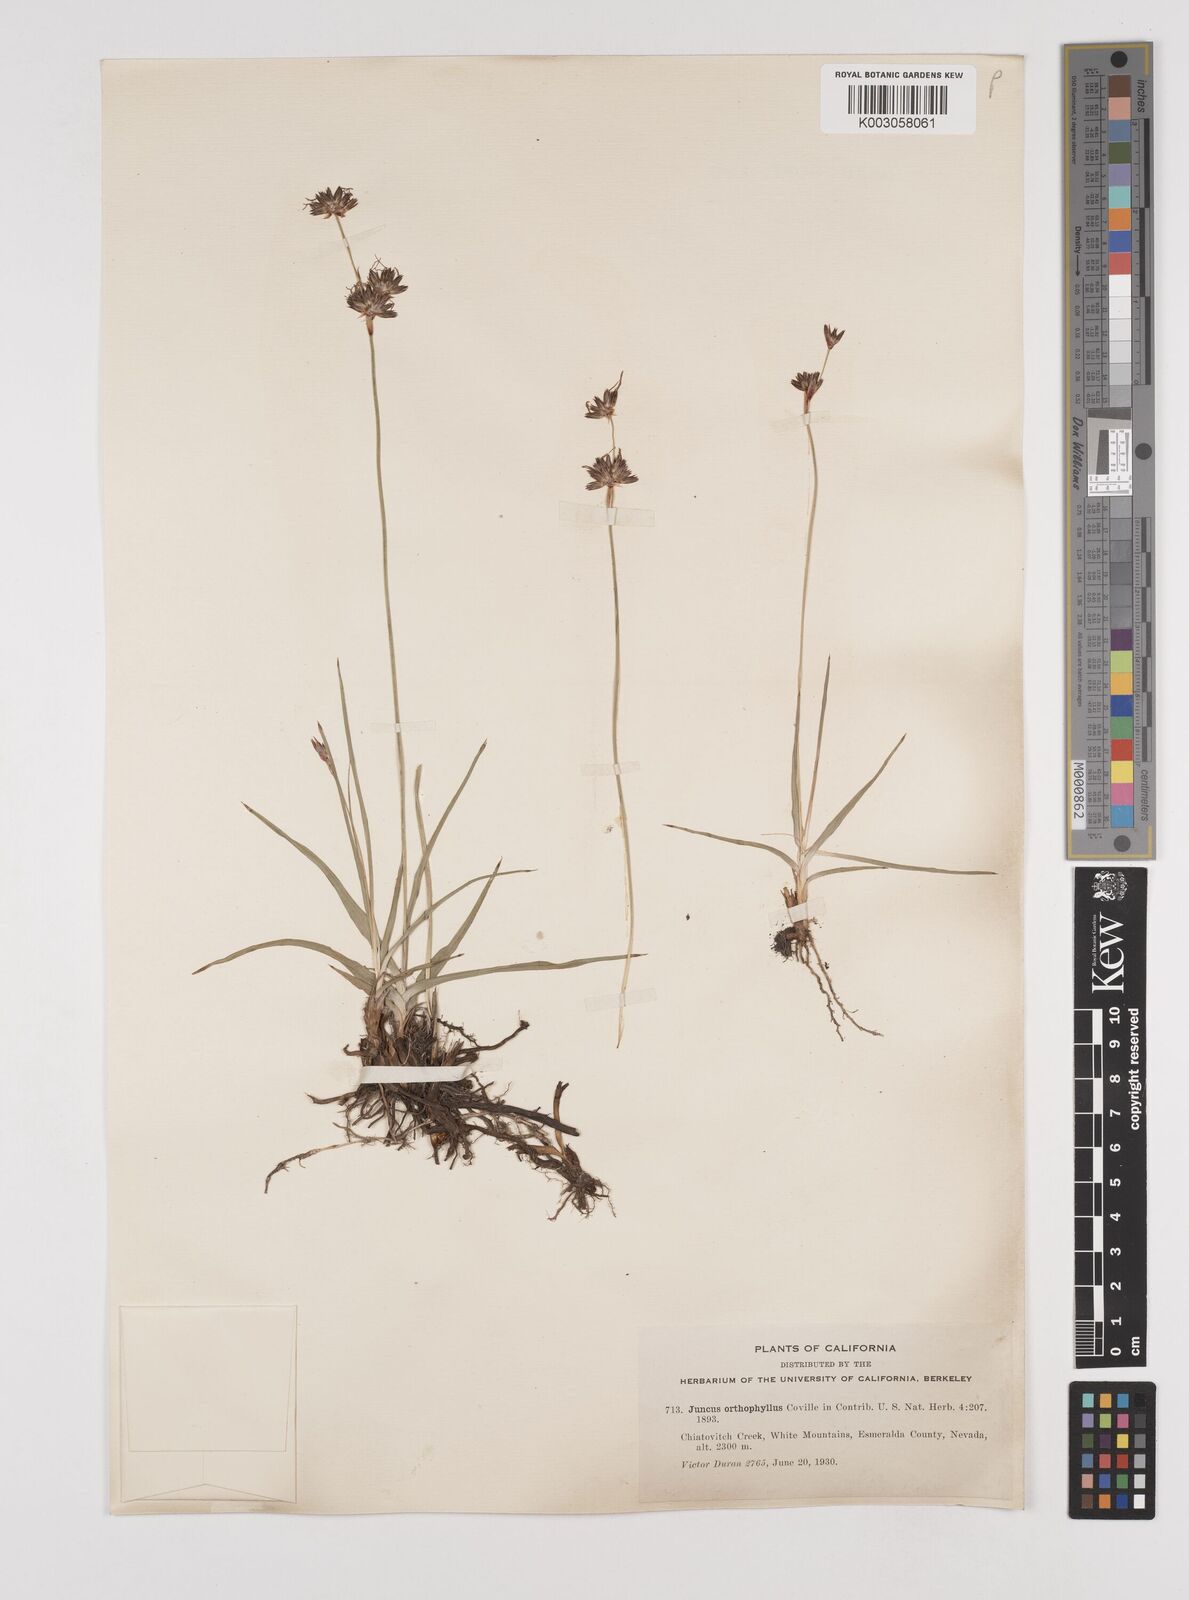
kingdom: Plantae
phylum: Tracheophyta
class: Liliopsida
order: Poales
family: Juncaceae
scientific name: Juncaceae
